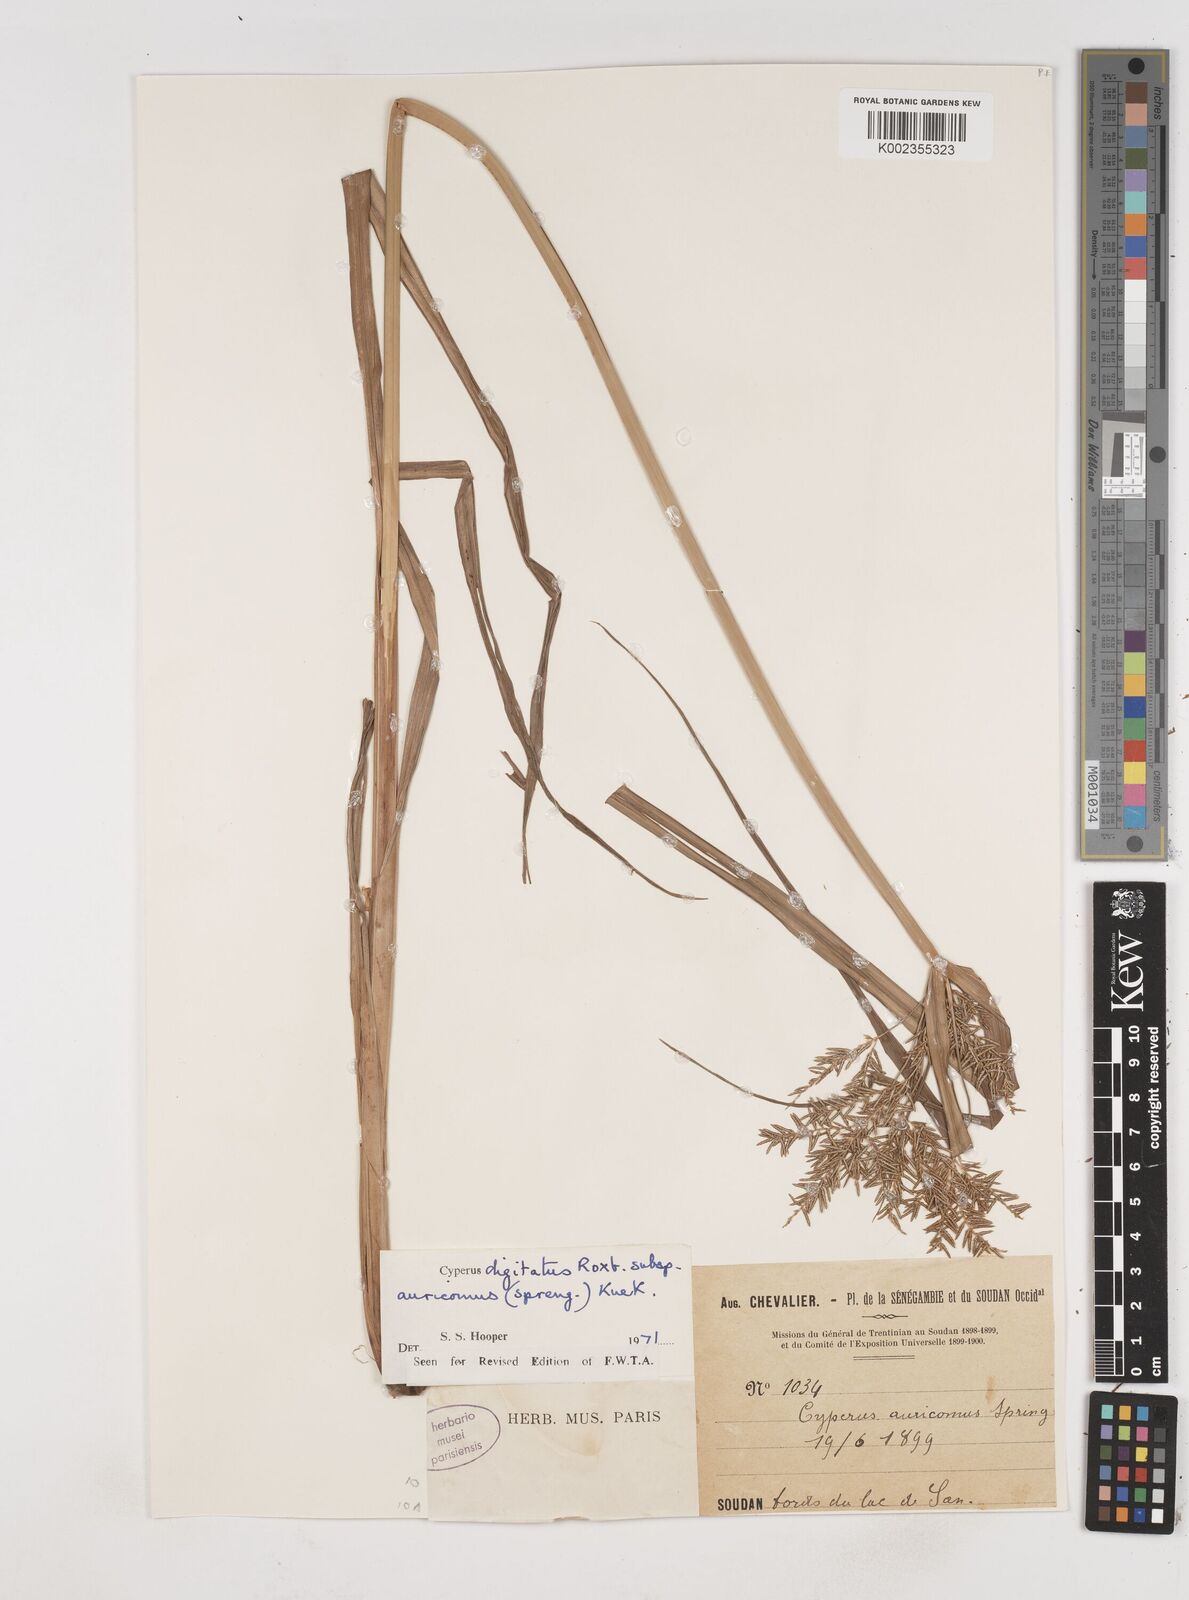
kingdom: Plantae
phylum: Tracheophyta
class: Liliopsida
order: Poales
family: Cyperaceae
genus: Cyperus
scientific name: Cyperus digitatus
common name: Finger flatsedge
